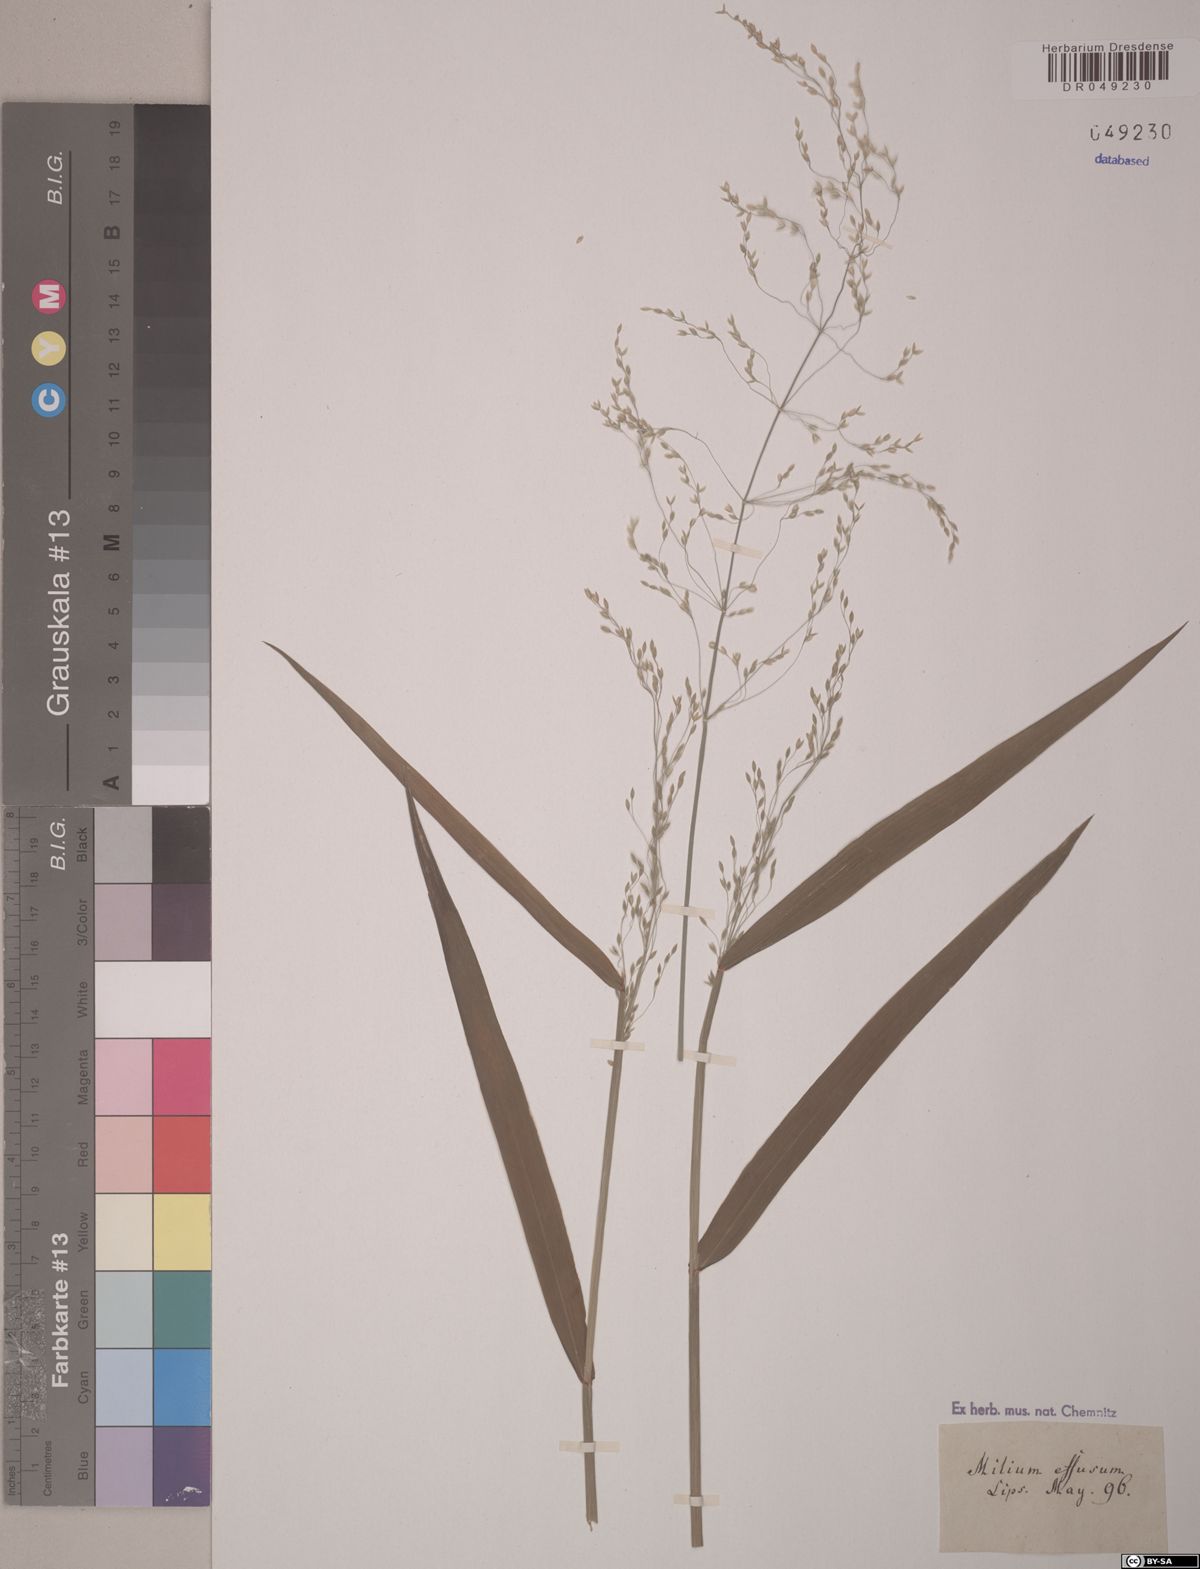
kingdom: Plantae
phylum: Tracheophyta
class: Liliopsida
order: Poales
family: Poaceae
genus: Milium
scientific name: Milium effusum
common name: Wood millet
